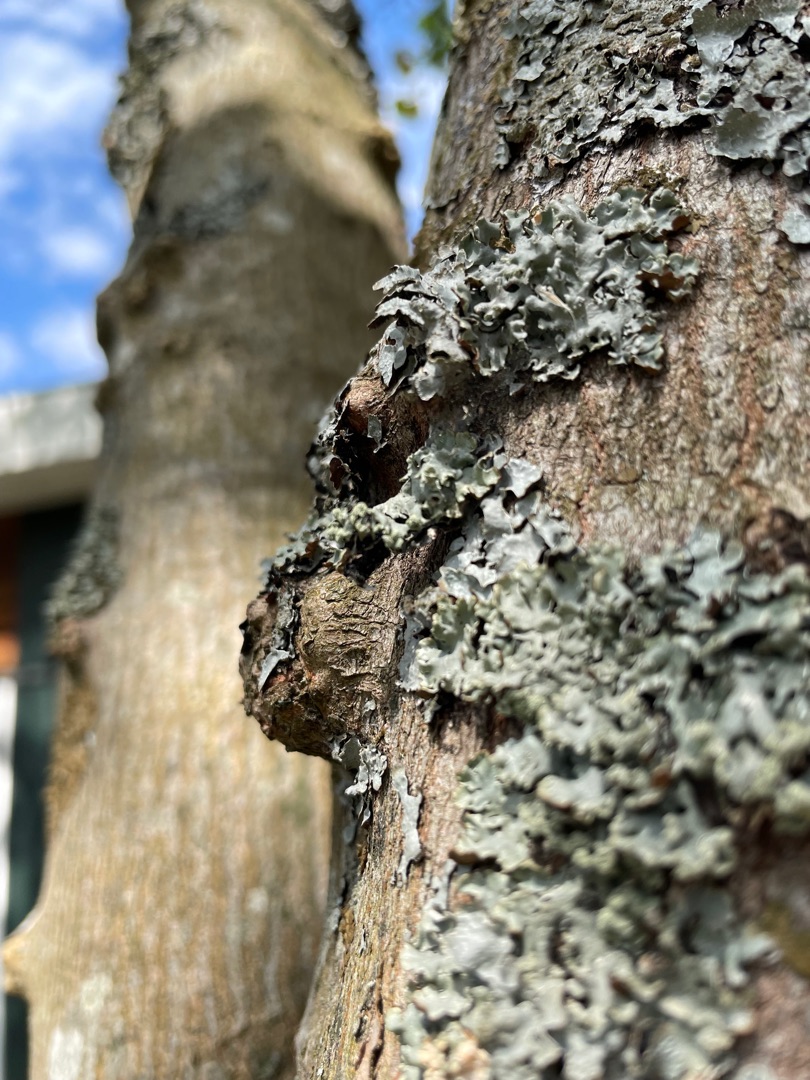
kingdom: Fungi
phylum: Ascomycota
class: Lecanoromycetes
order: Lecanorales
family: Parmeliaceae
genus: Parmelia
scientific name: Parmelia sulcata
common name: Rynket skållav
